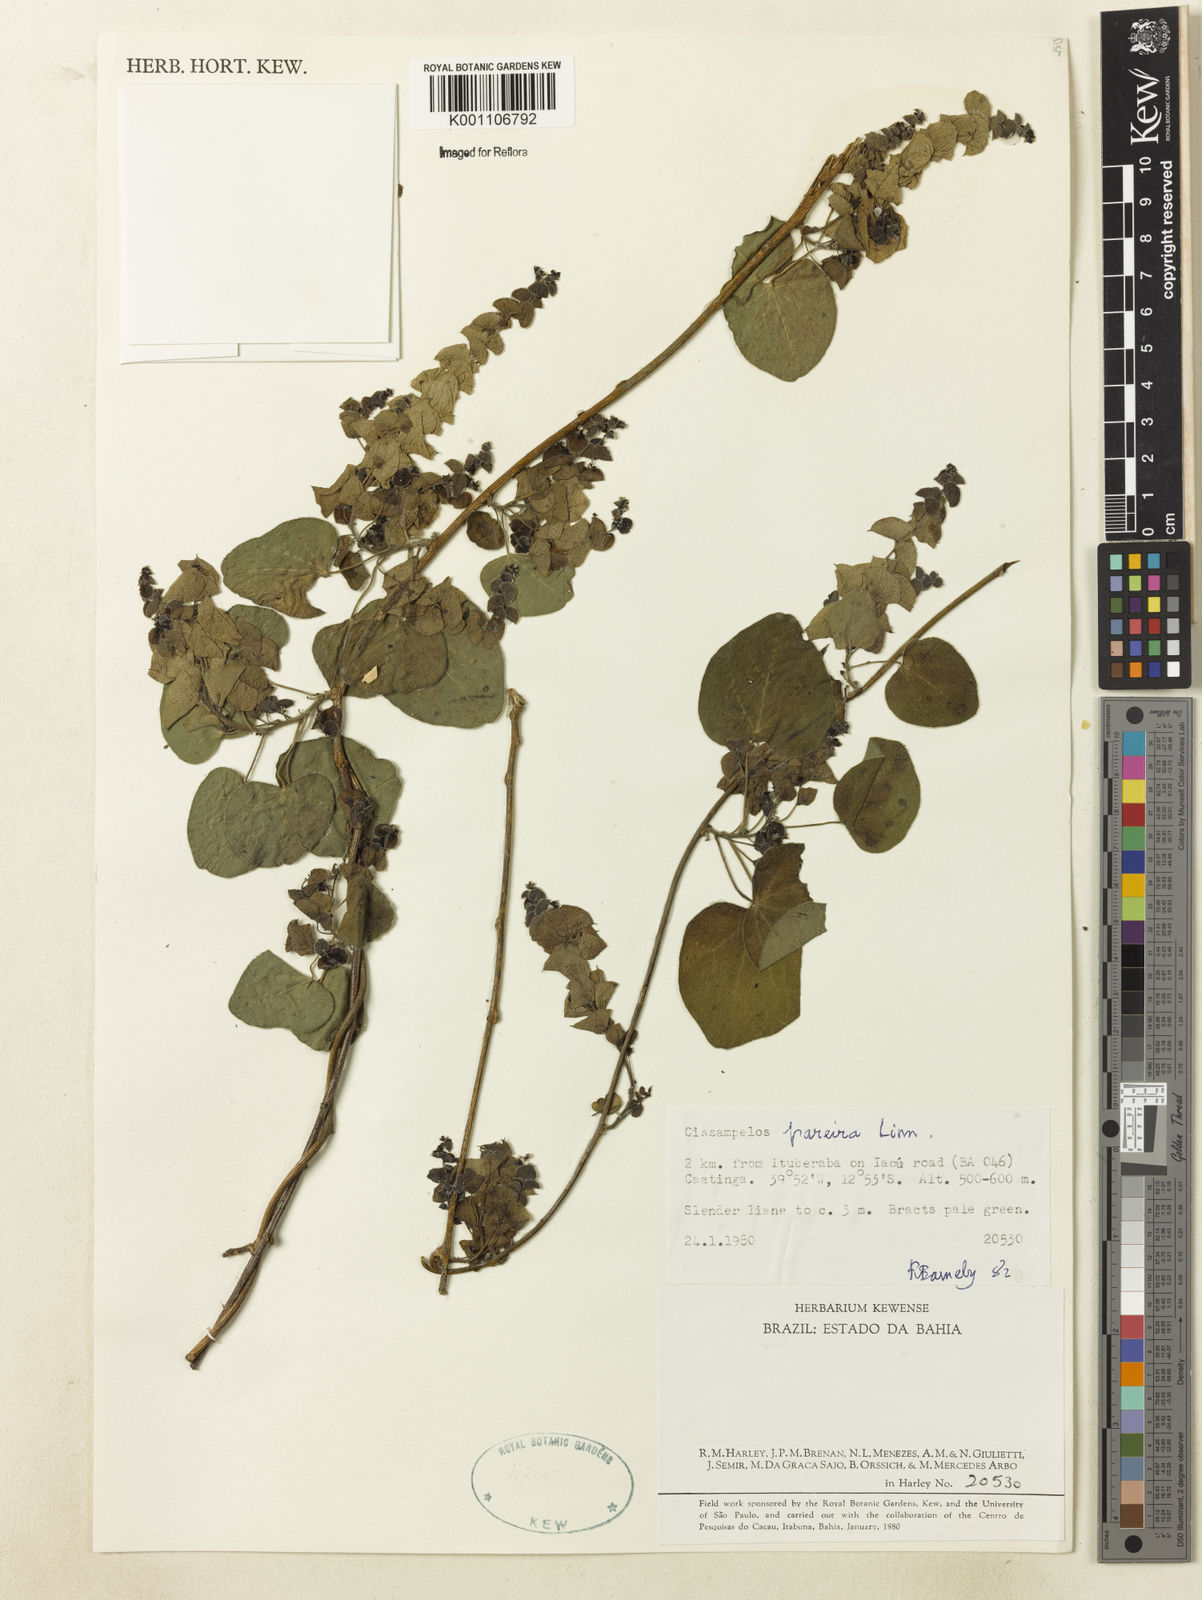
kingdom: Plantae
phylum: Tracheophyta
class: Magnoliopsida
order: Ranunculales
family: Menispermaceae
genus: Cissampelos
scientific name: Cissampelos pareira
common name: Velvetleaf
